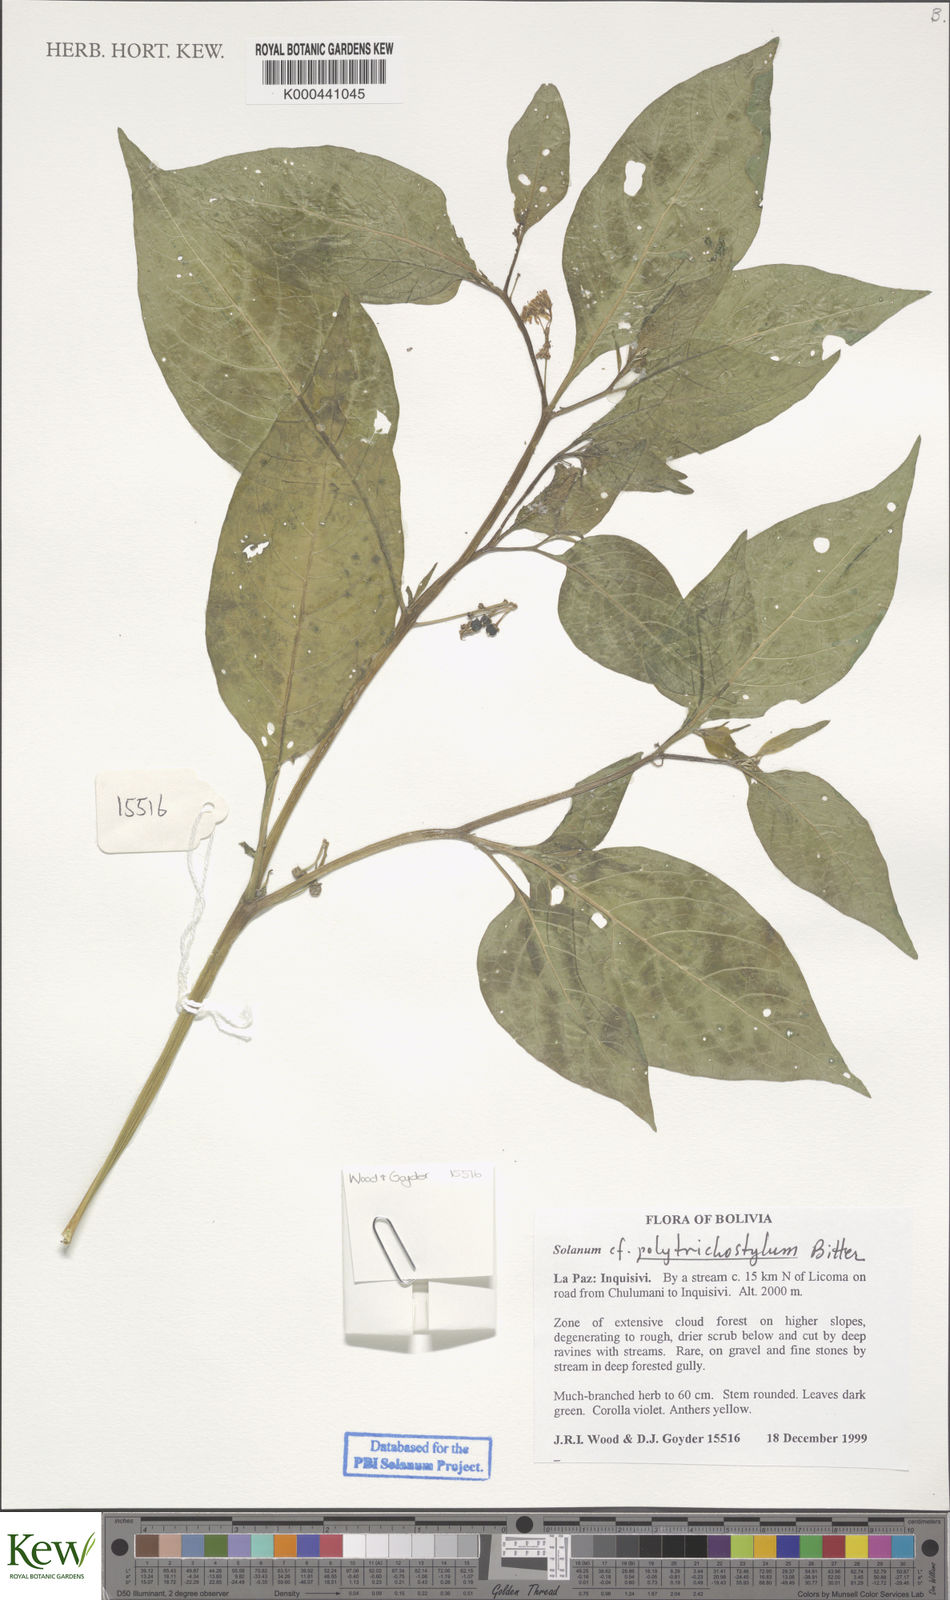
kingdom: Plantae
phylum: Tracheophyta
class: Magnoliopsida
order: Solanales
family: Solanaceae
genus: Solanum
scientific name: Solanum polytrichostylum
